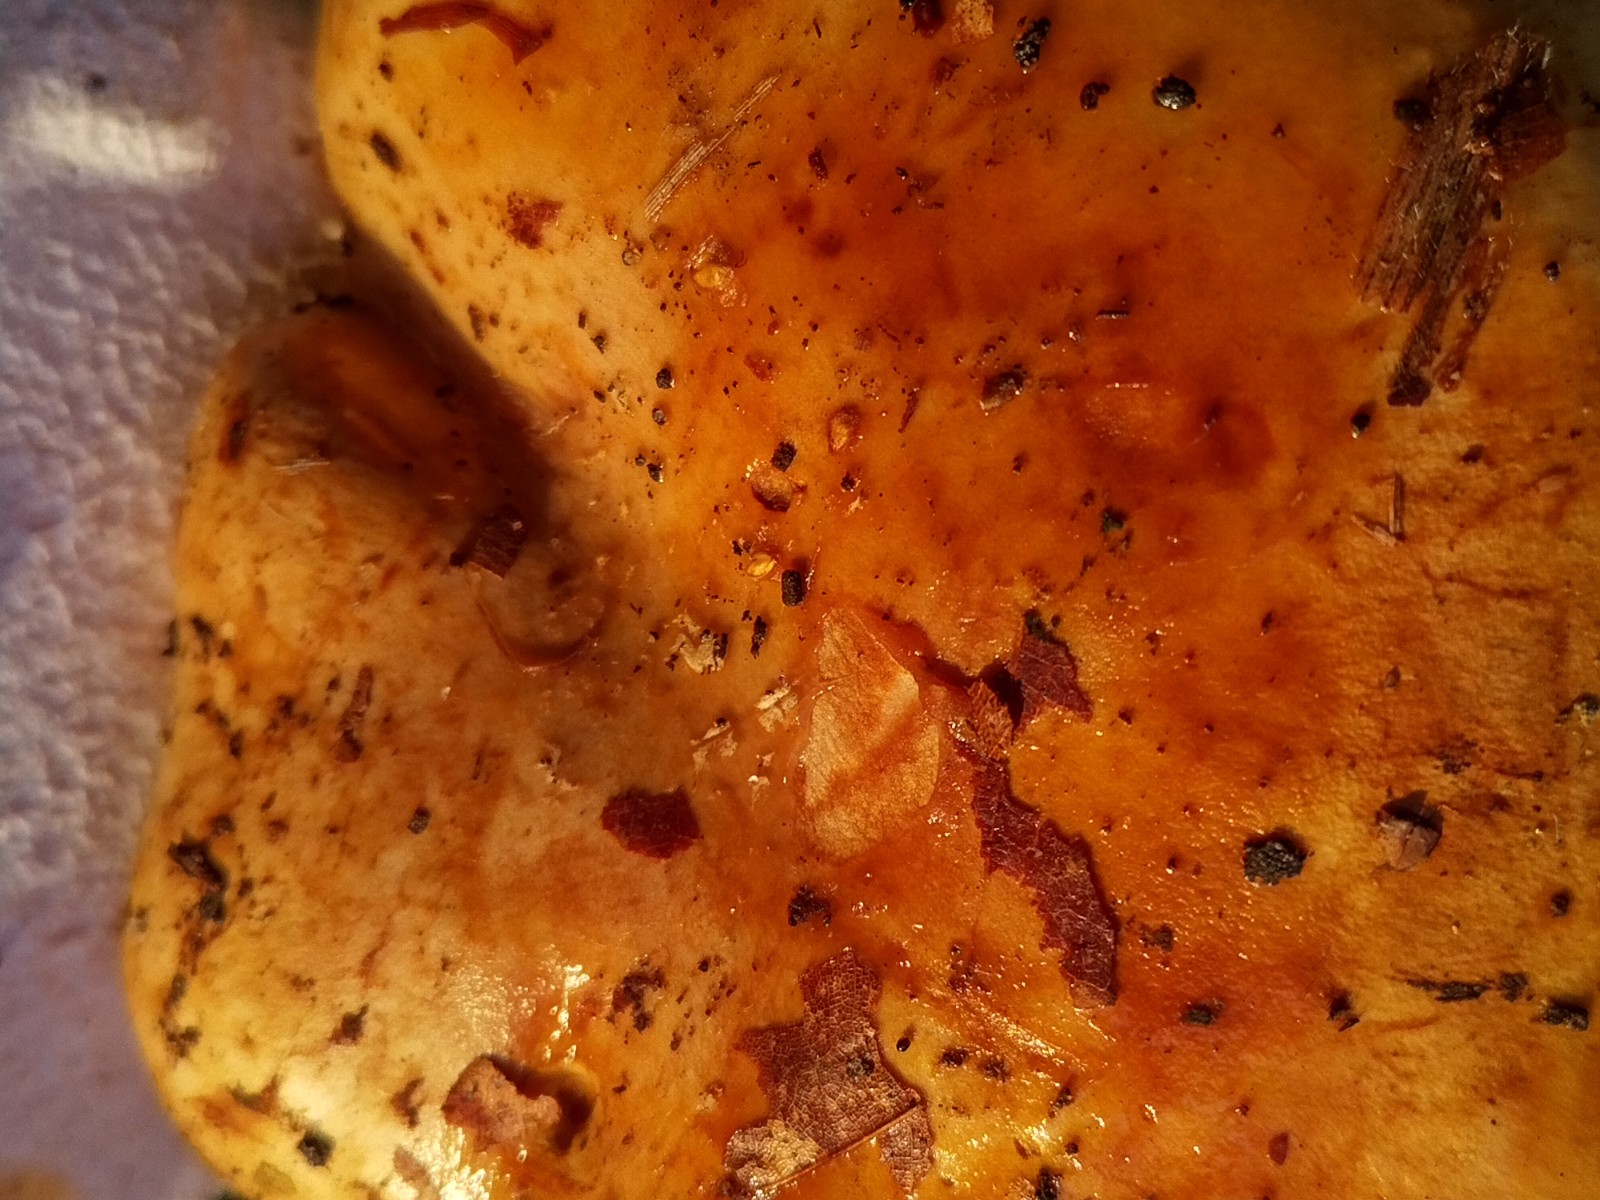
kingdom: Fungi
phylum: Basidiomycota
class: Agaricomycetes
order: Agaricales
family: Cortinariaceae
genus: Calonarius
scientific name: Calonarius humolens
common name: radise-slørhat
